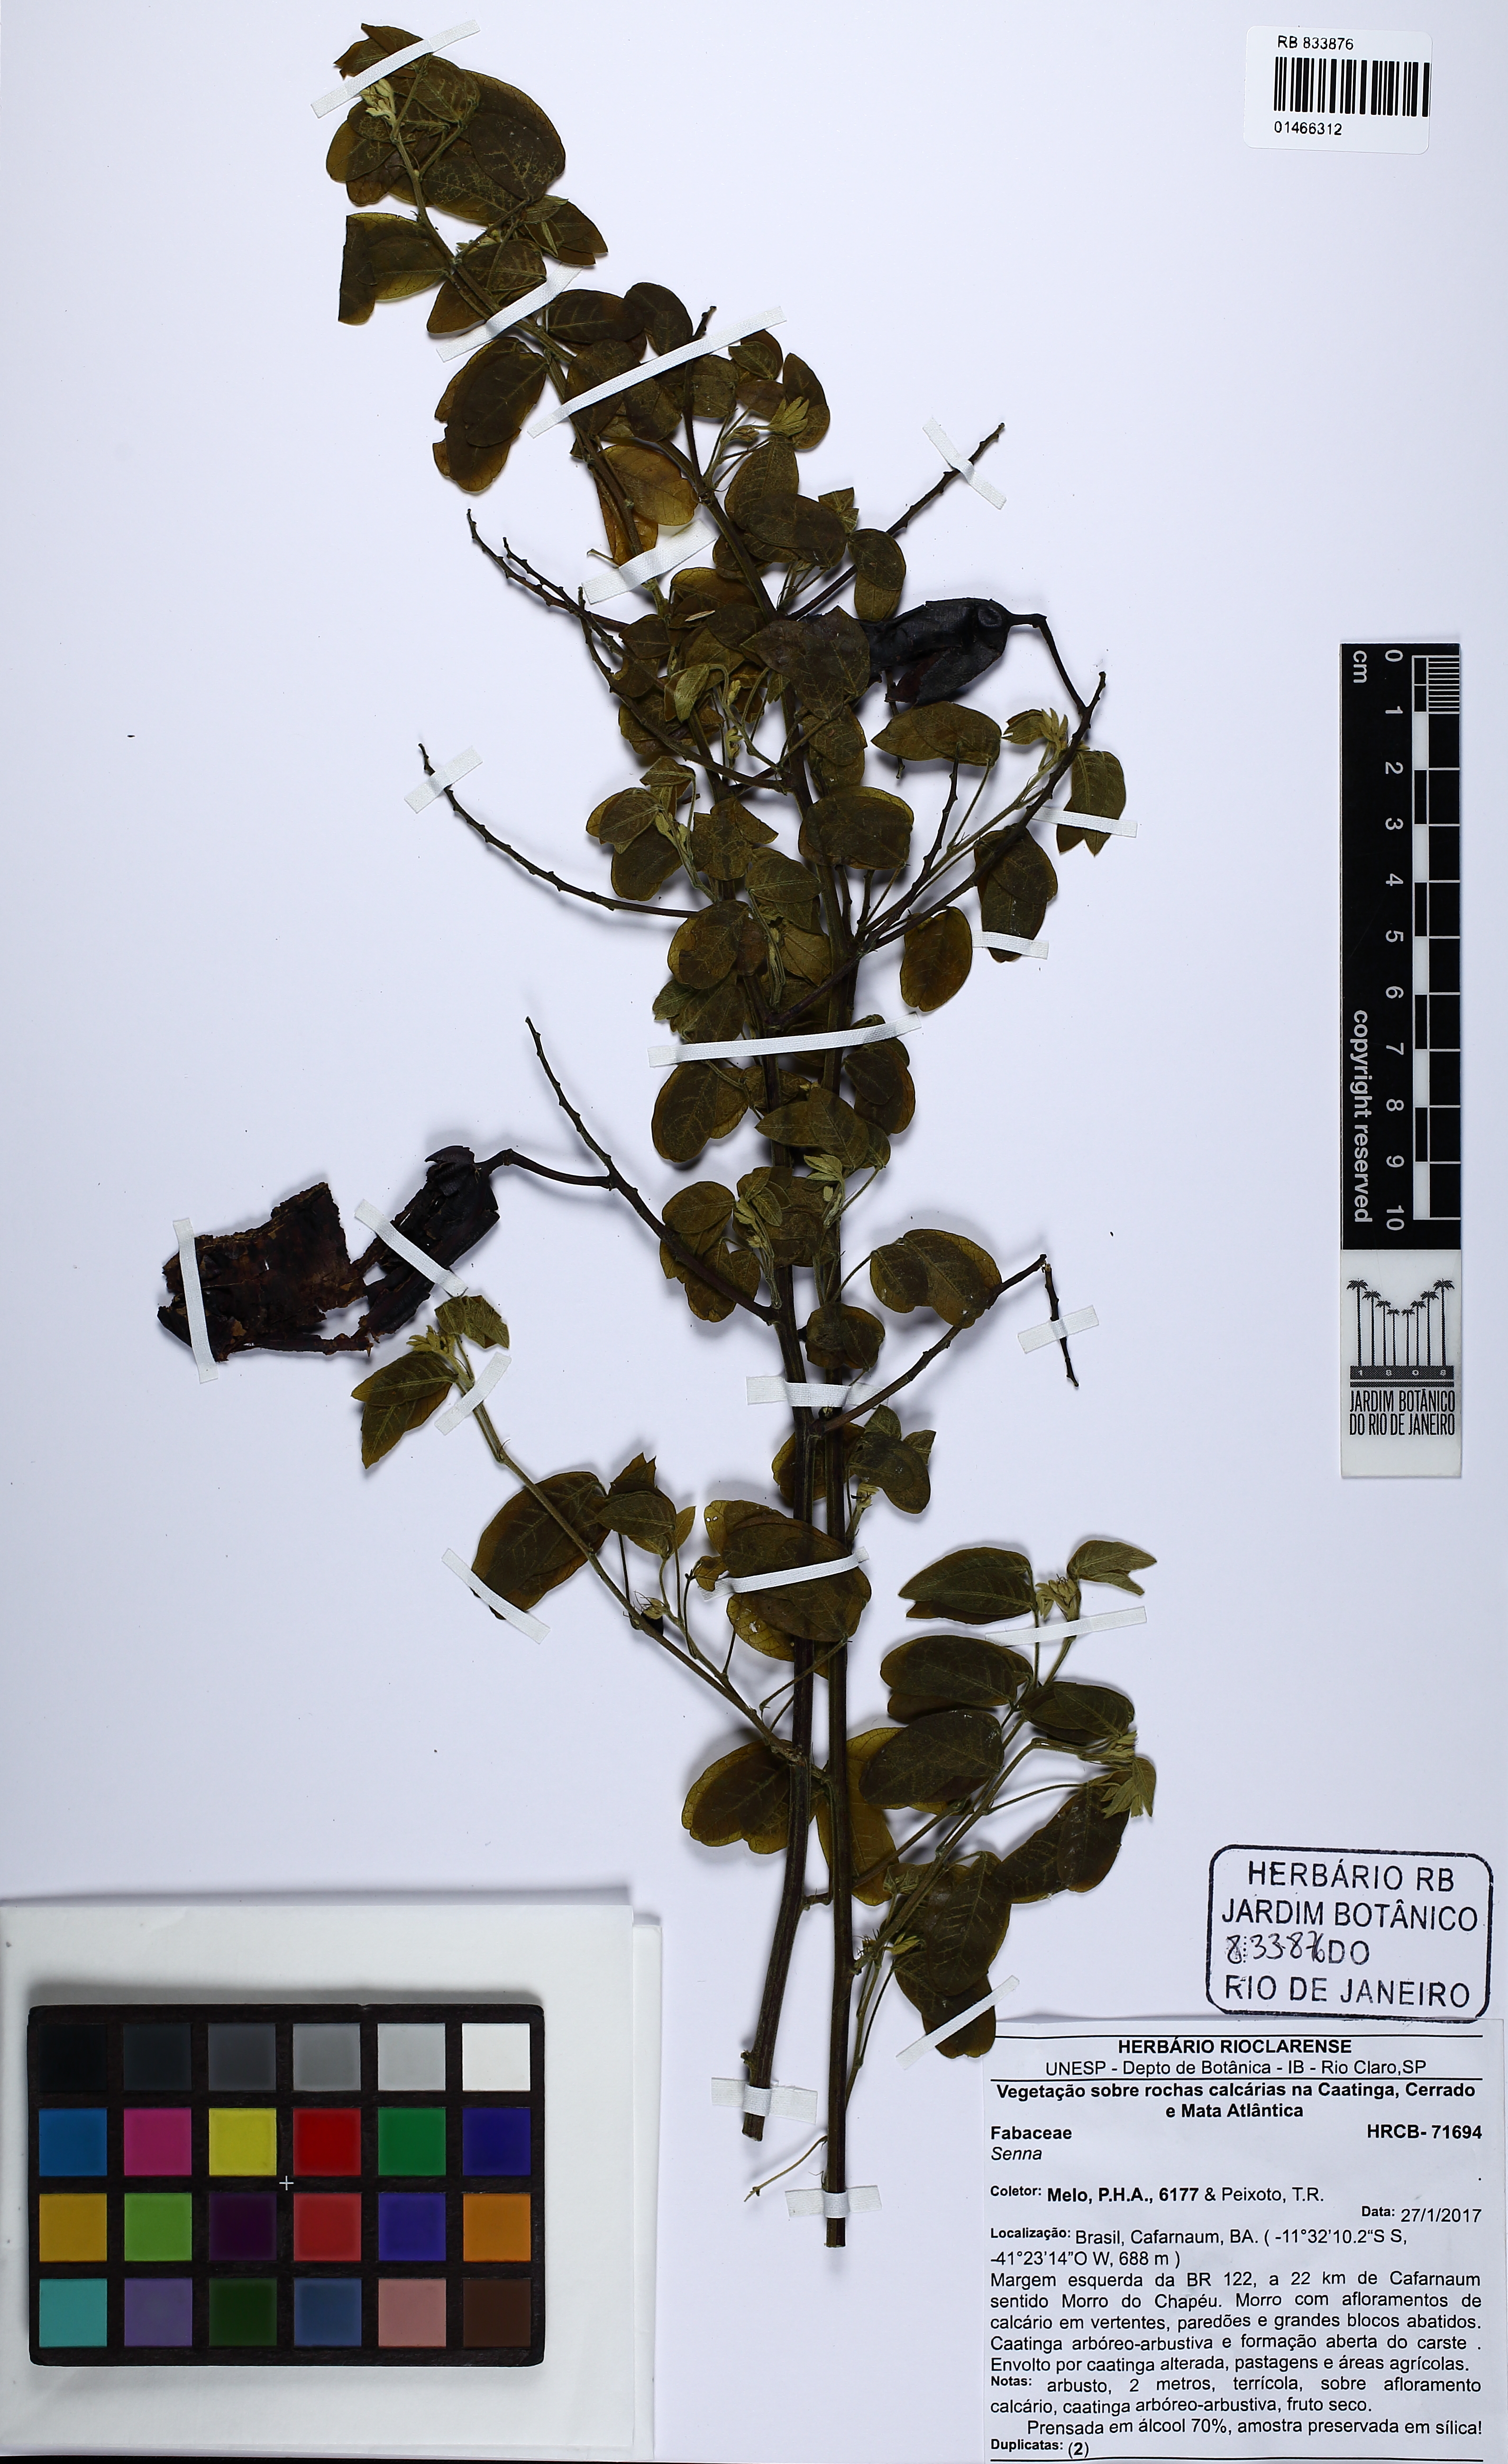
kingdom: Plantae
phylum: Tracheophyta
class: Magnoliopsida
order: Fabales
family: Fabaceae
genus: Senna
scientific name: Senna
